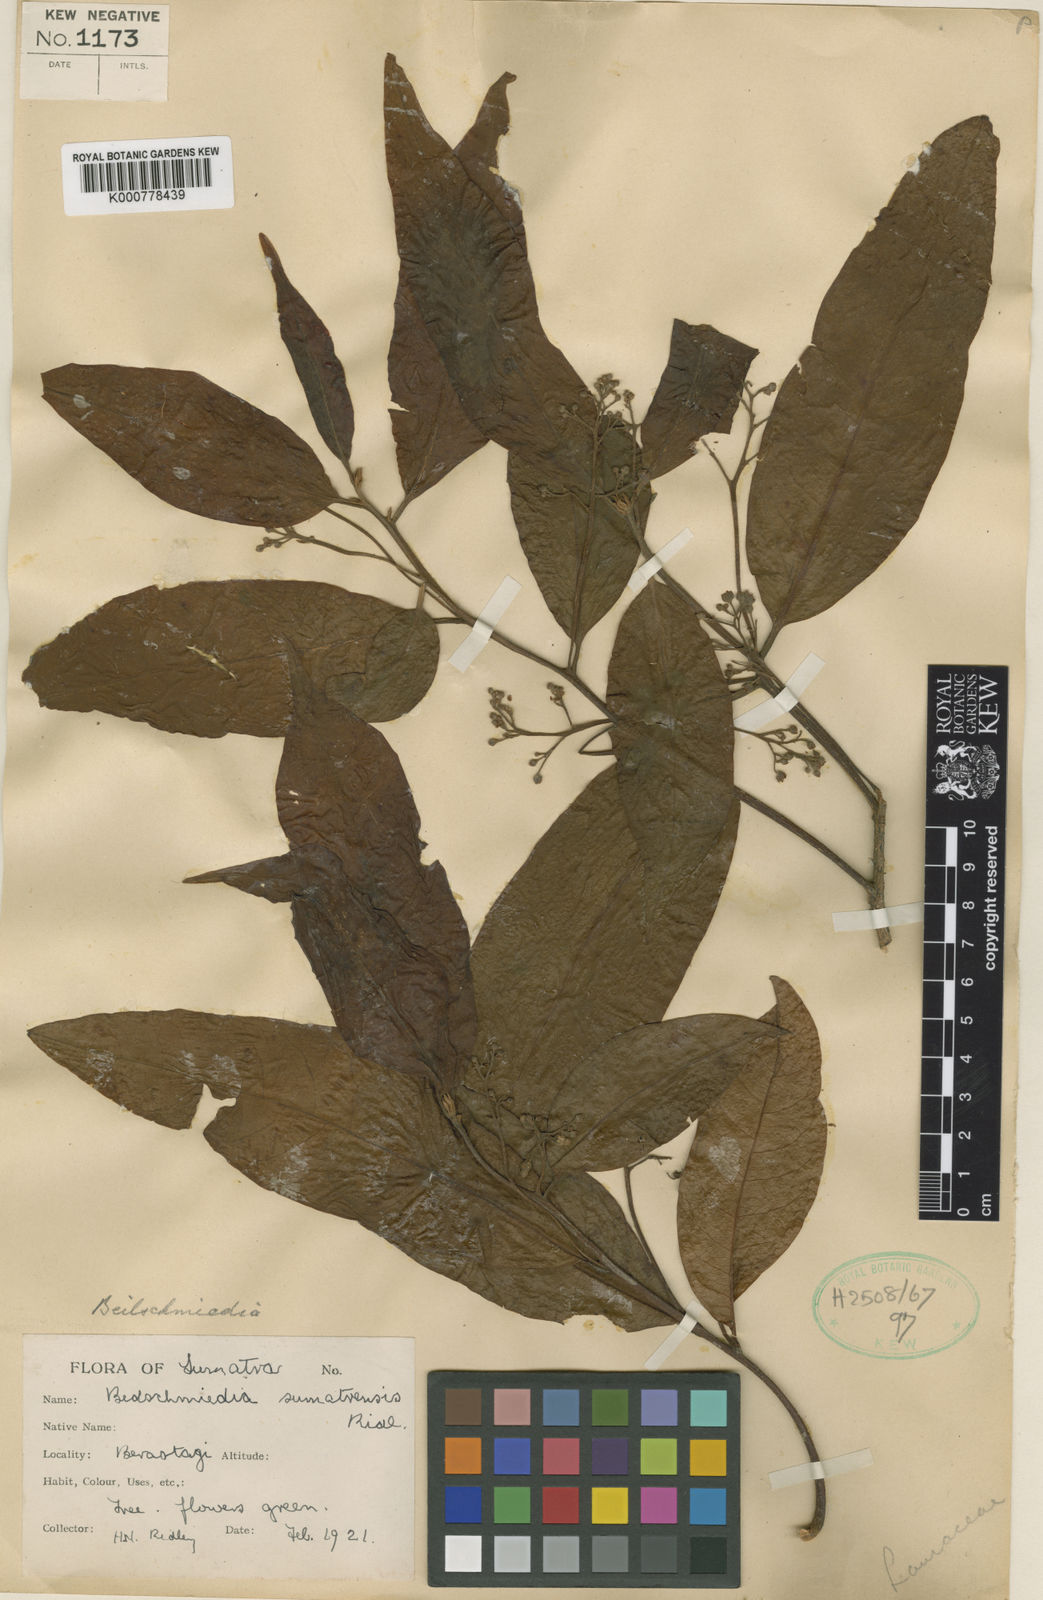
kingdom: Plantae
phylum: Tracheophyta
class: Magnoliopsida
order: Laurales
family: Lauraceae
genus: Beilschmiedia
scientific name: Beilschmiedia palembanica
